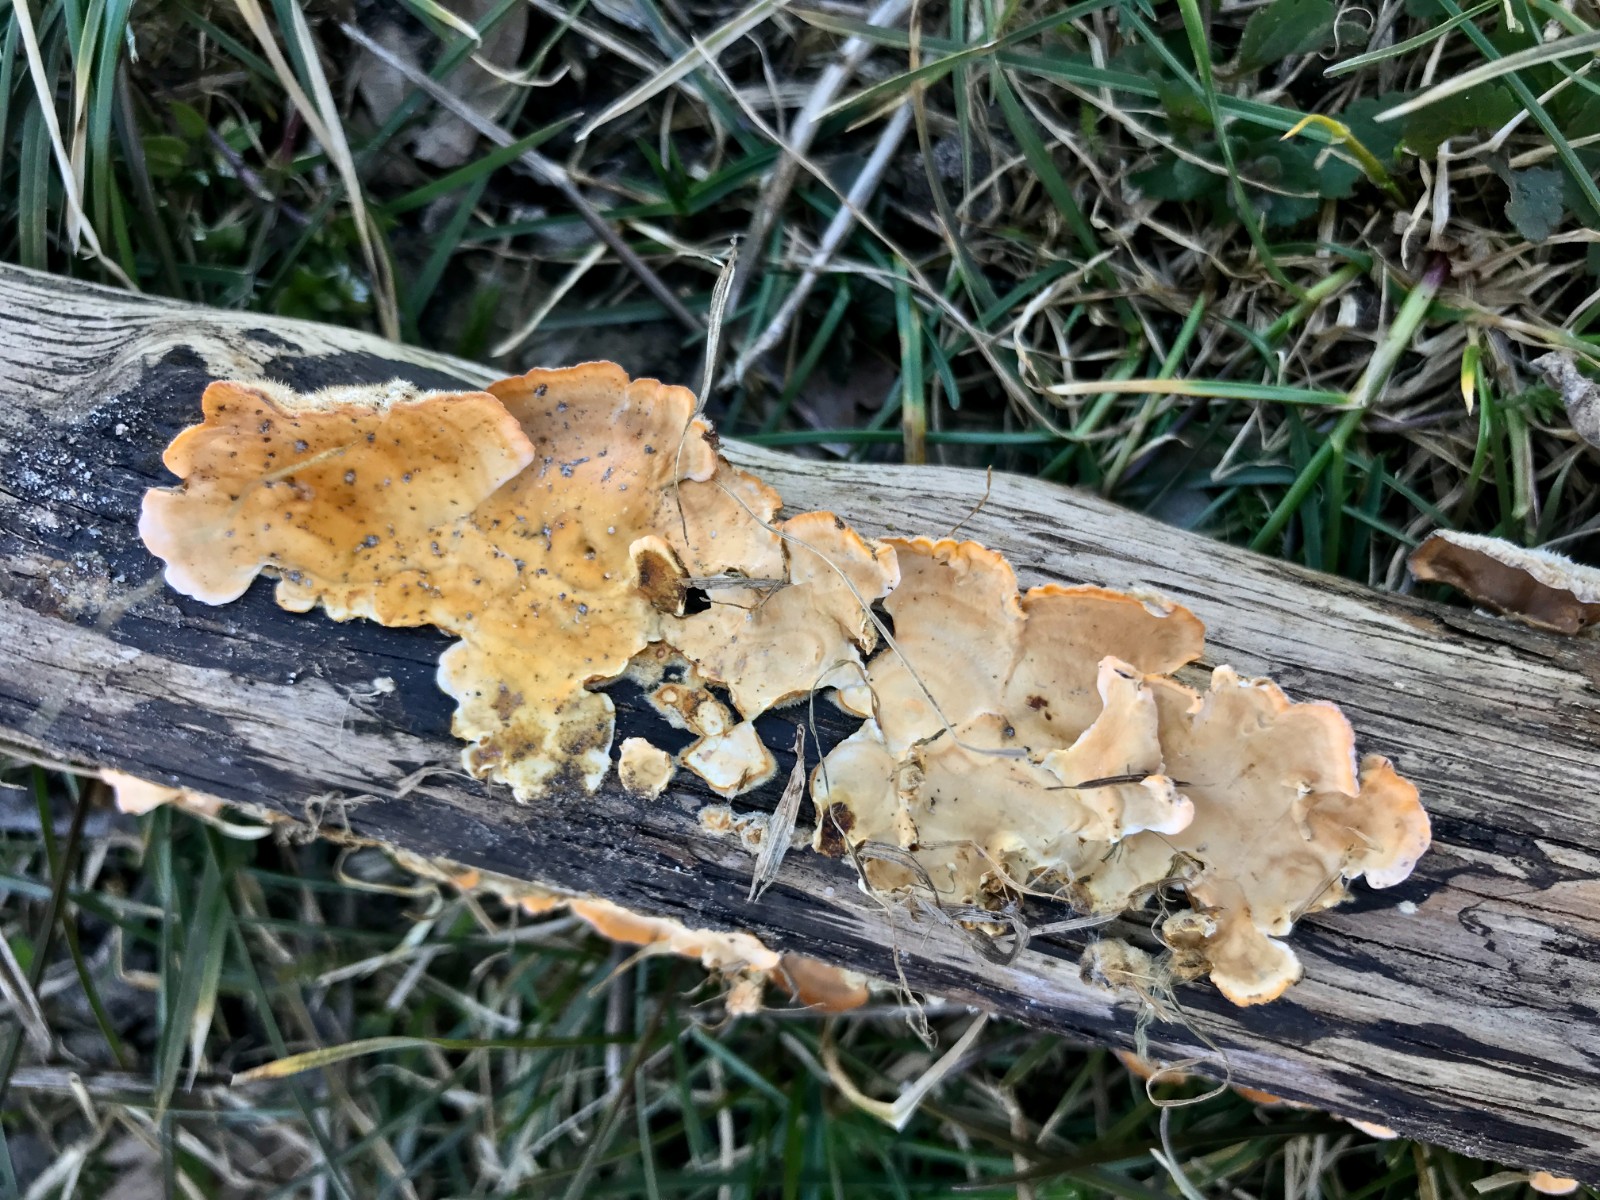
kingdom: Fungi
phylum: Basidiomycota
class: Agaricomycetes
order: Russulales
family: Stereaceae
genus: Stereum
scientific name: Stereum hirsutum
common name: håret lædersvamp
